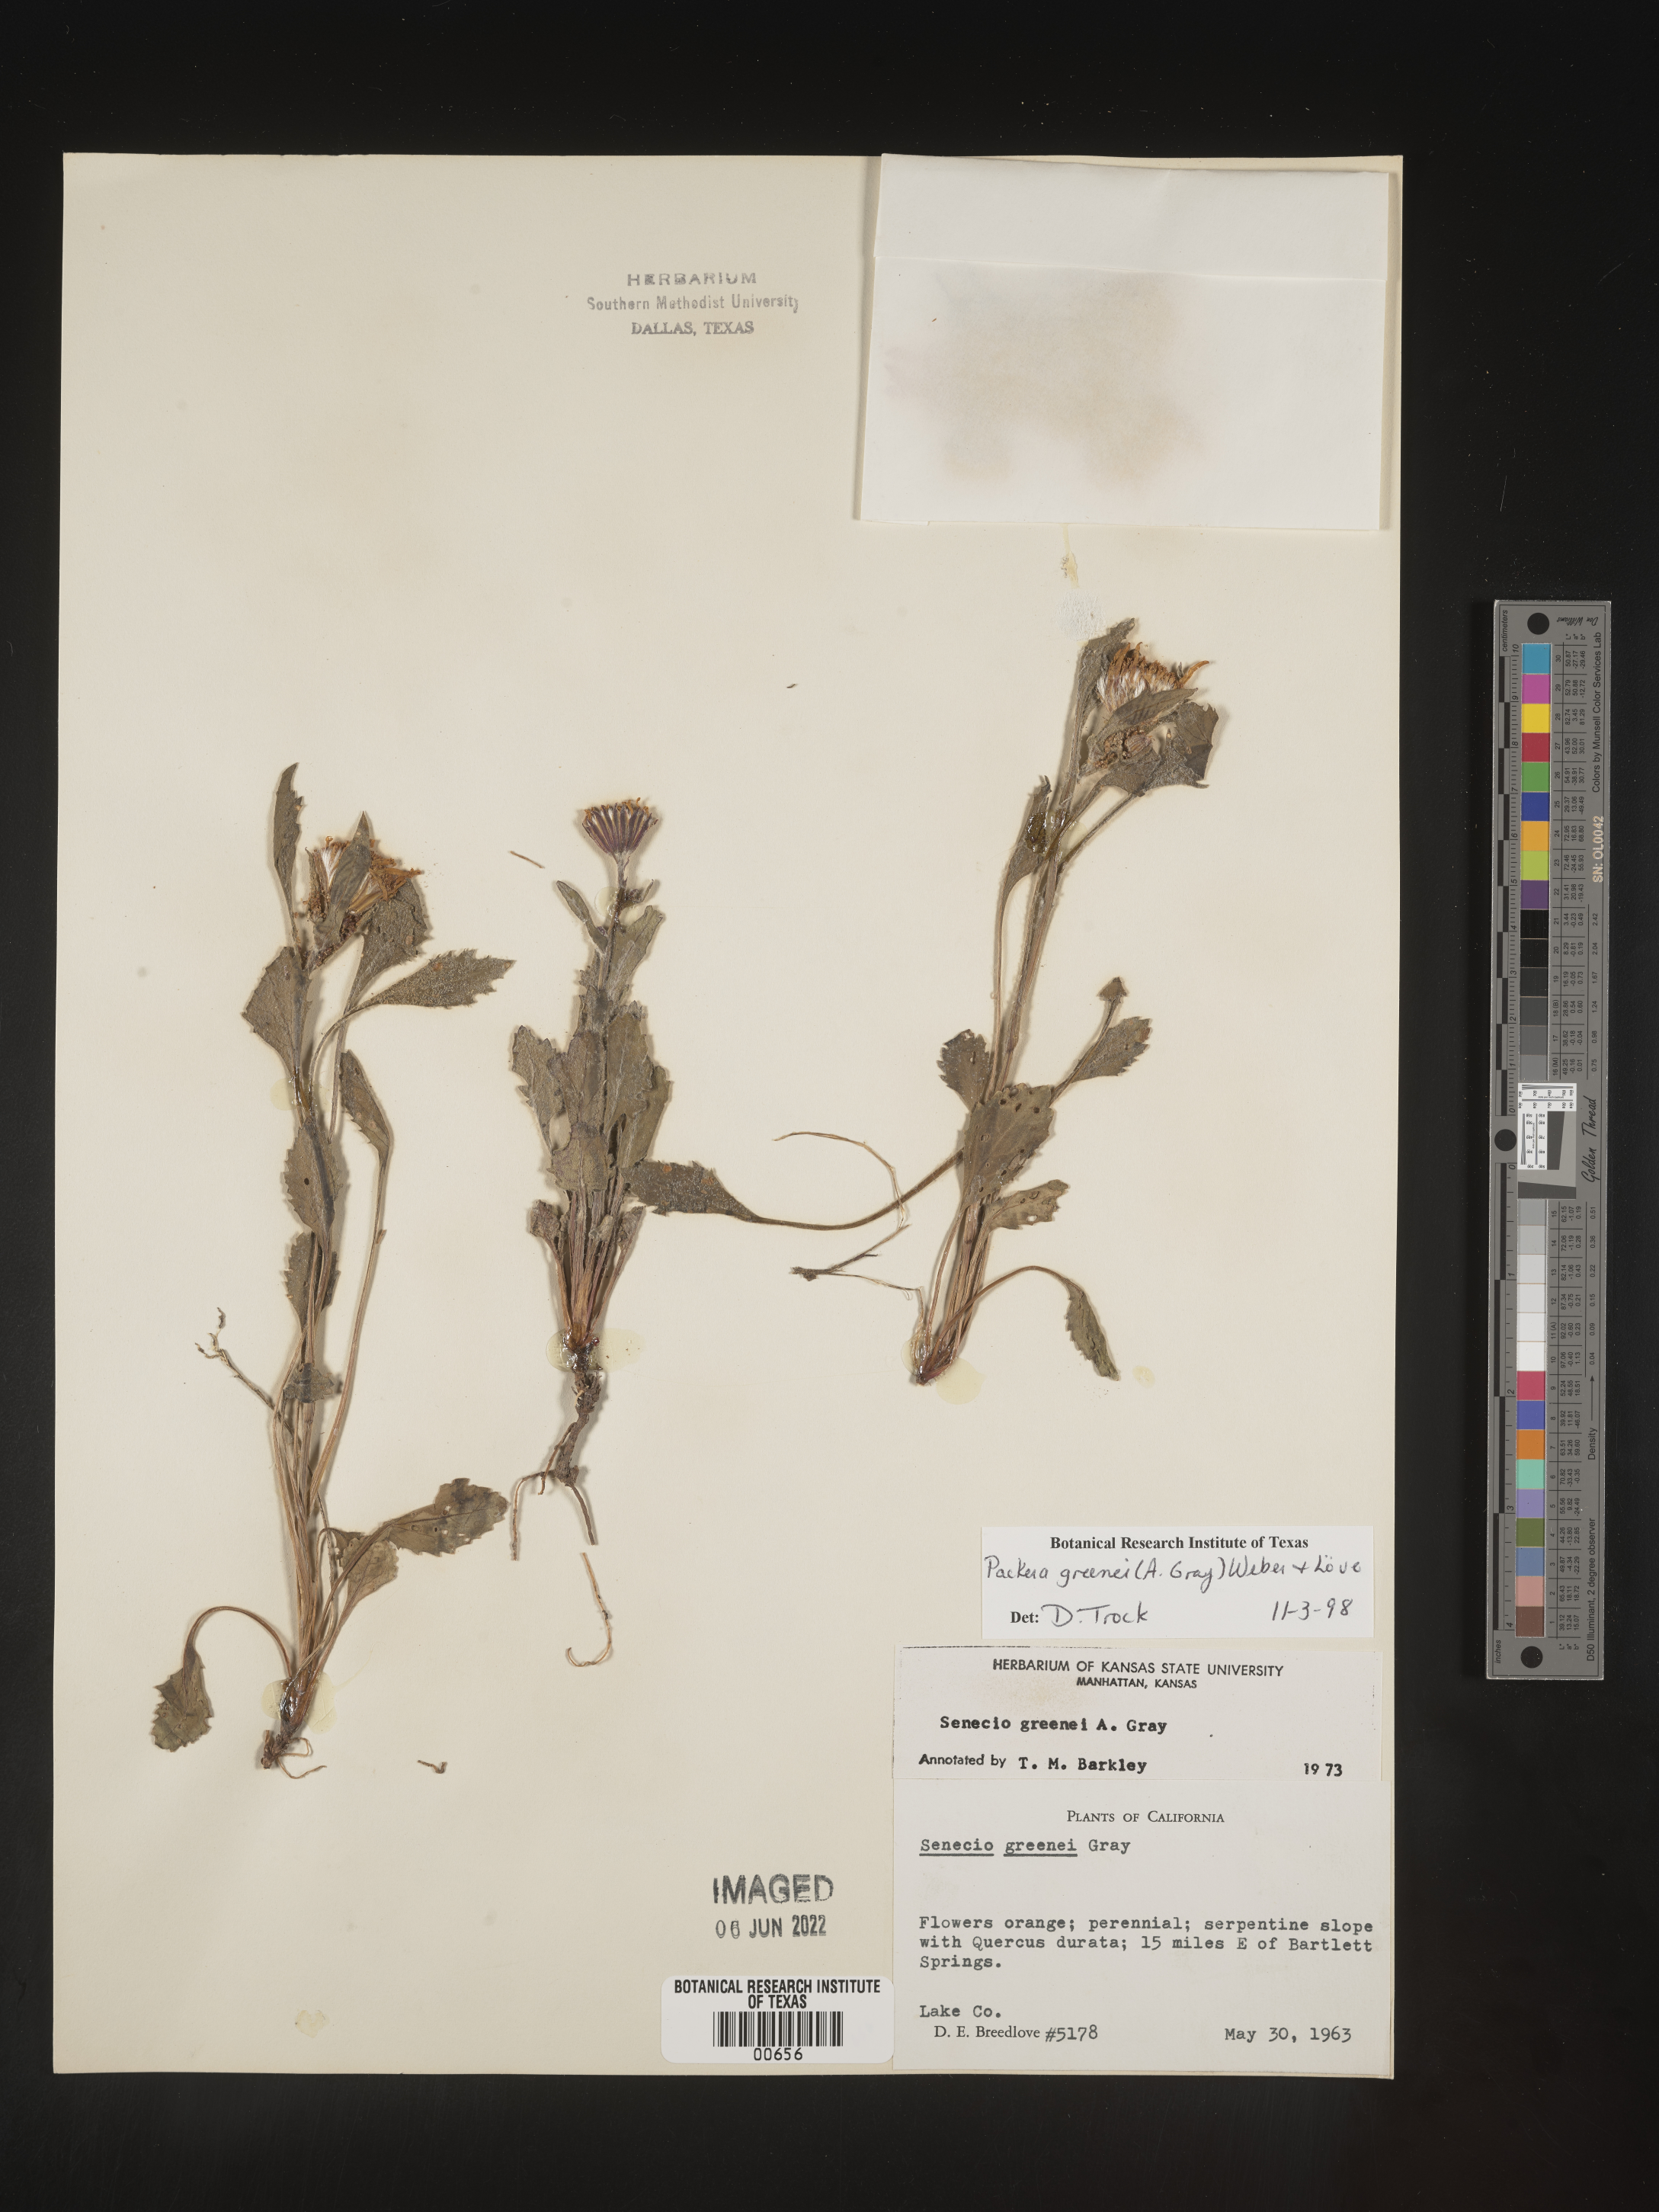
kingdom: Plantae
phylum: Tracheophyta
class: Magnoliopsida
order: Asterales
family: Asteraceae
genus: Packera
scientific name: Packera greenei
